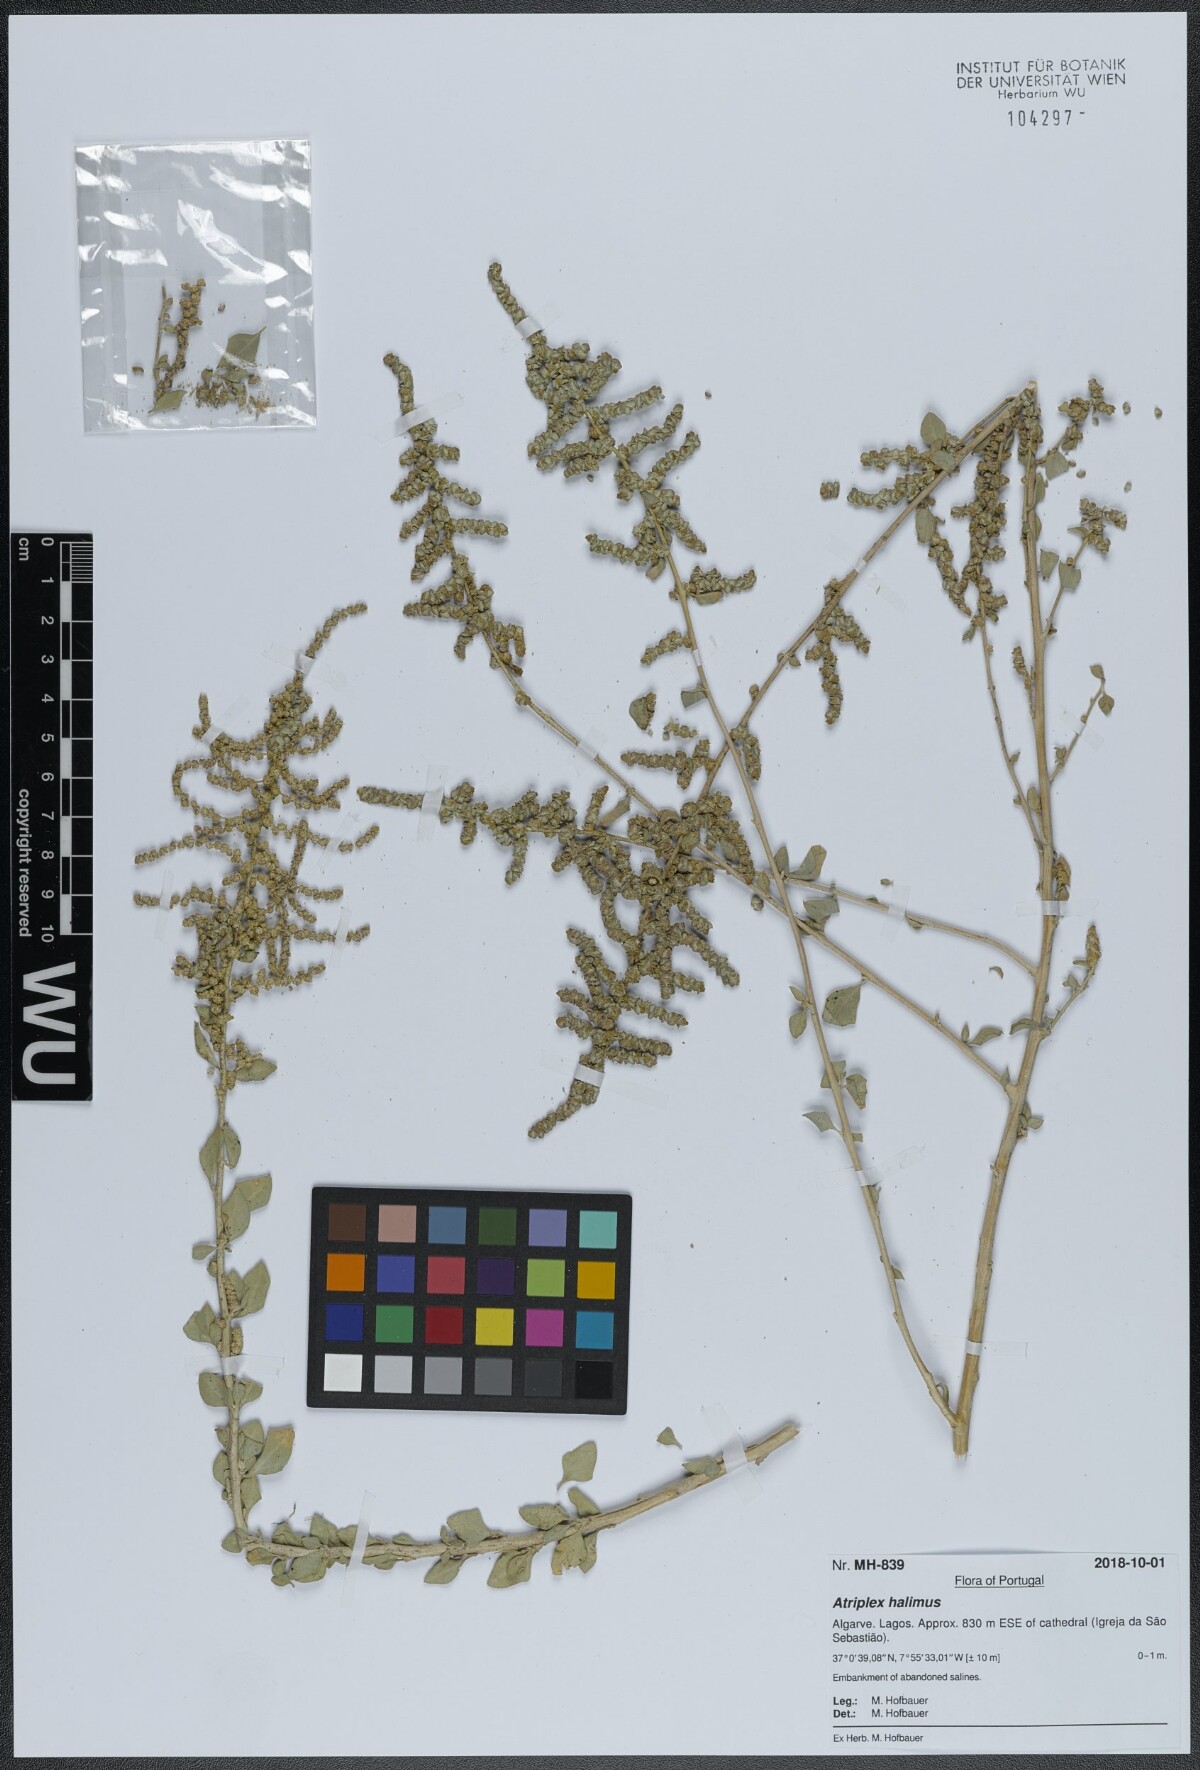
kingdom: Plantae
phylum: Tracheophyta
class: Magnoliopsida
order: Caryophyllales
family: Amaranthaceae
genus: Atriplex
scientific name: Atriplex halimus
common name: Shrubby orache
